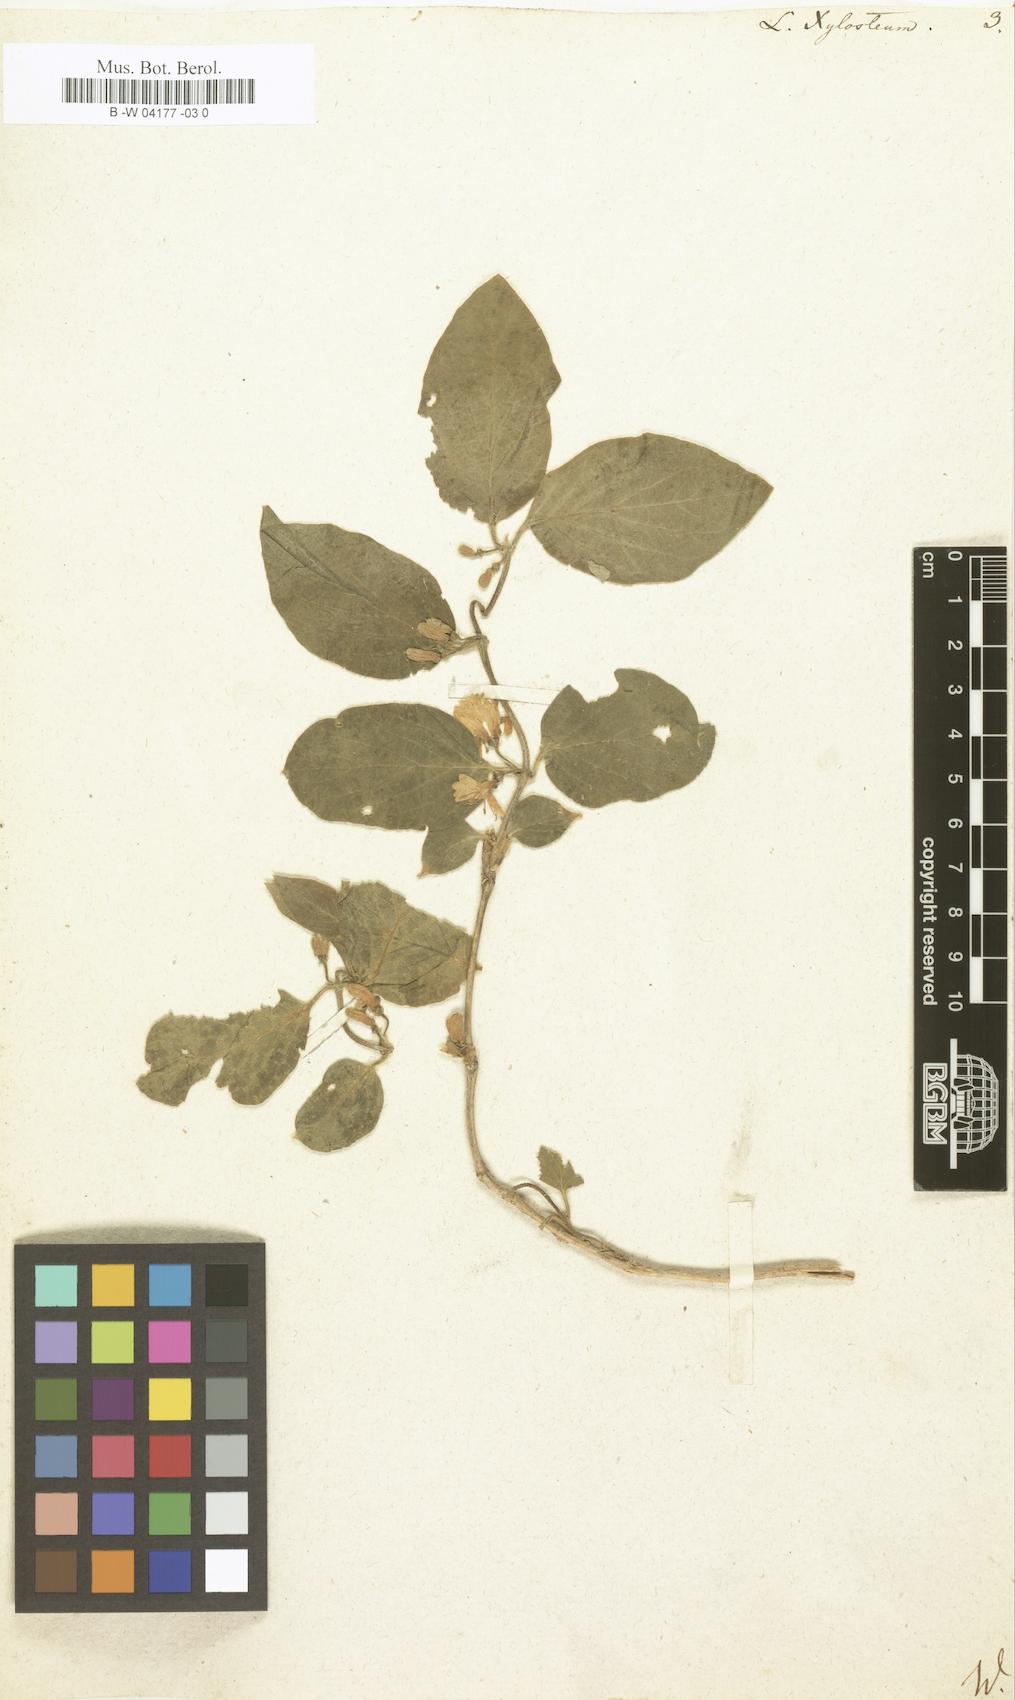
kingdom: Plantae
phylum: Tracheophyta
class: Magnoliopsida
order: Dipsacales
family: Caprifoliaceae
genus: Lonicera
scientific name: Lonicera xylosteum
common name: Fly honeysuckle
